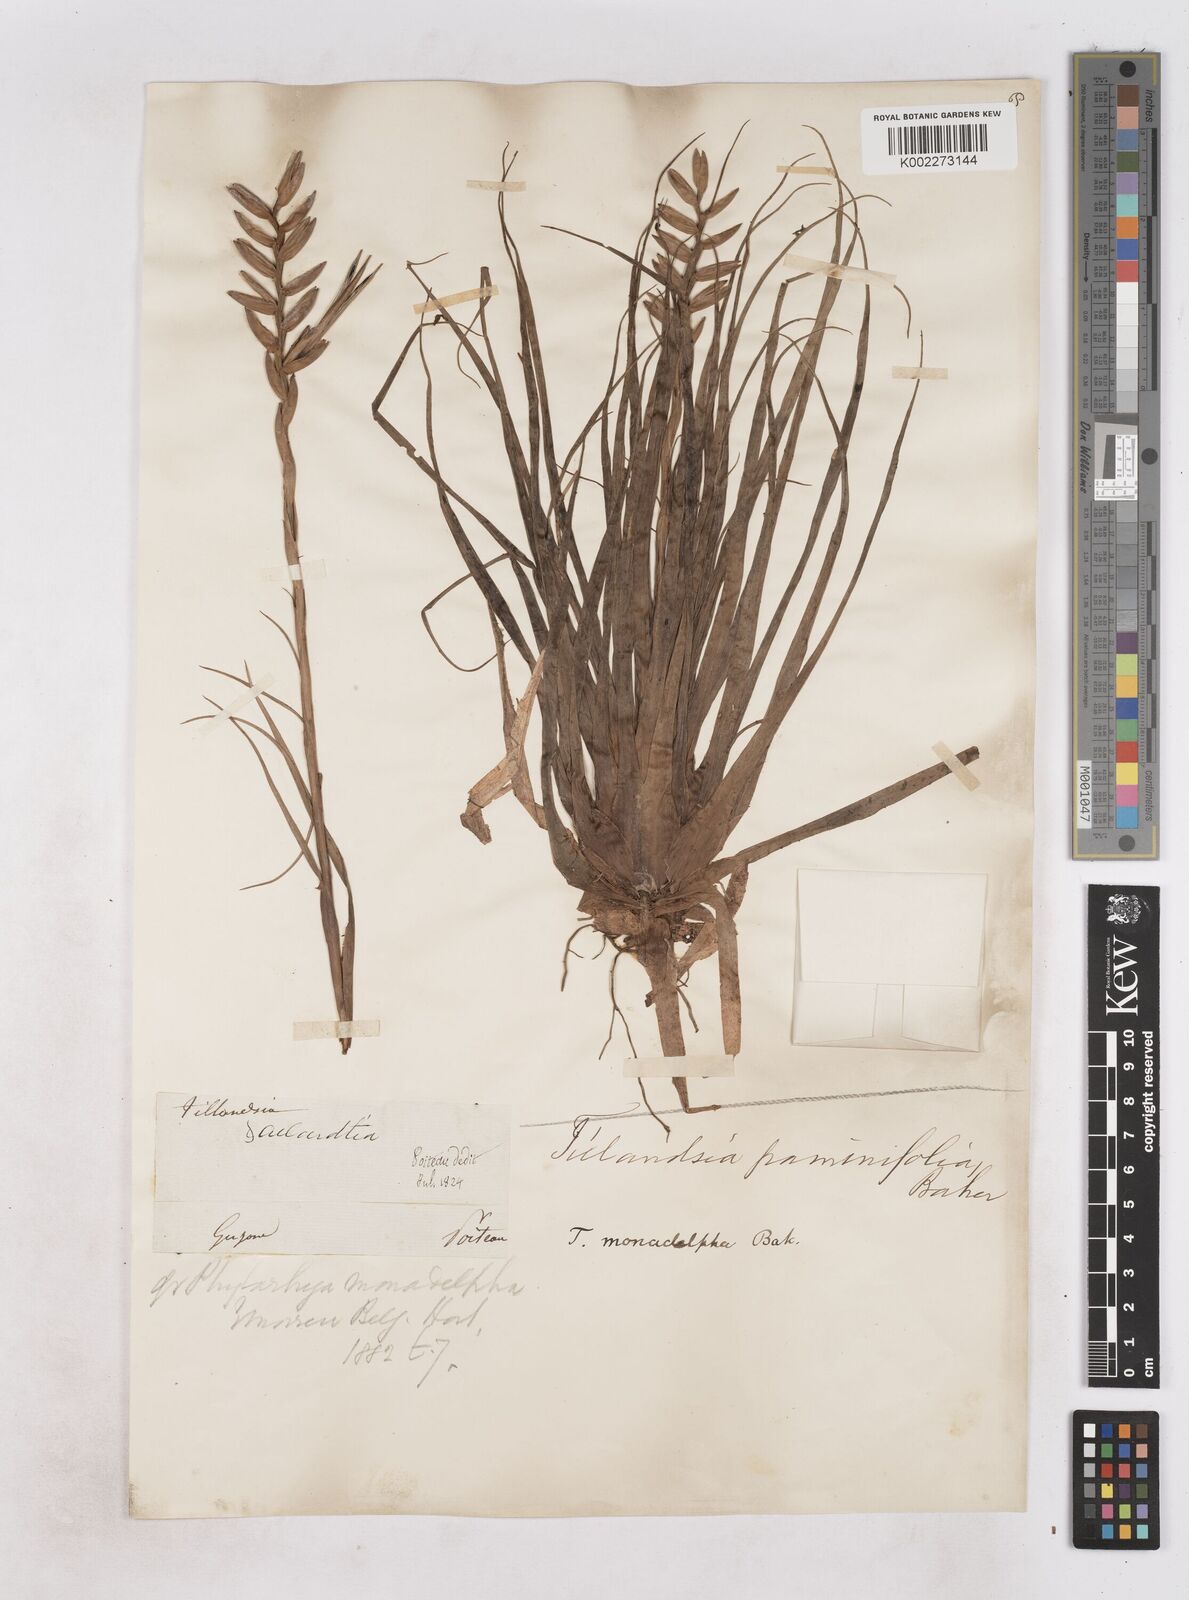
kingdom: Plantae
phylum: Tracheophyta
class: Liliopsida
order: Poales
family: Bromeliaceae
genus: Lemeltonia
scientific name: Lemeltonia monadelpha
